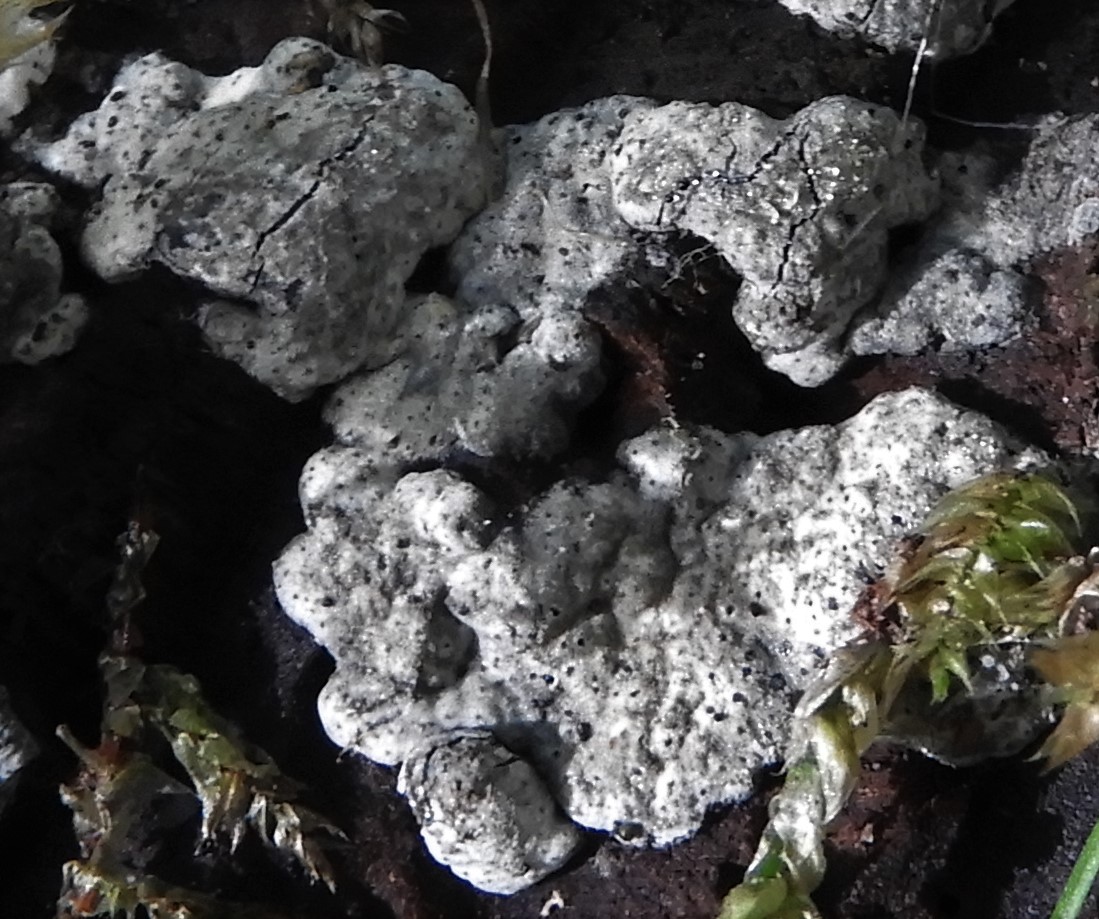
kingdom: Fungi
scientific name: Fungi
